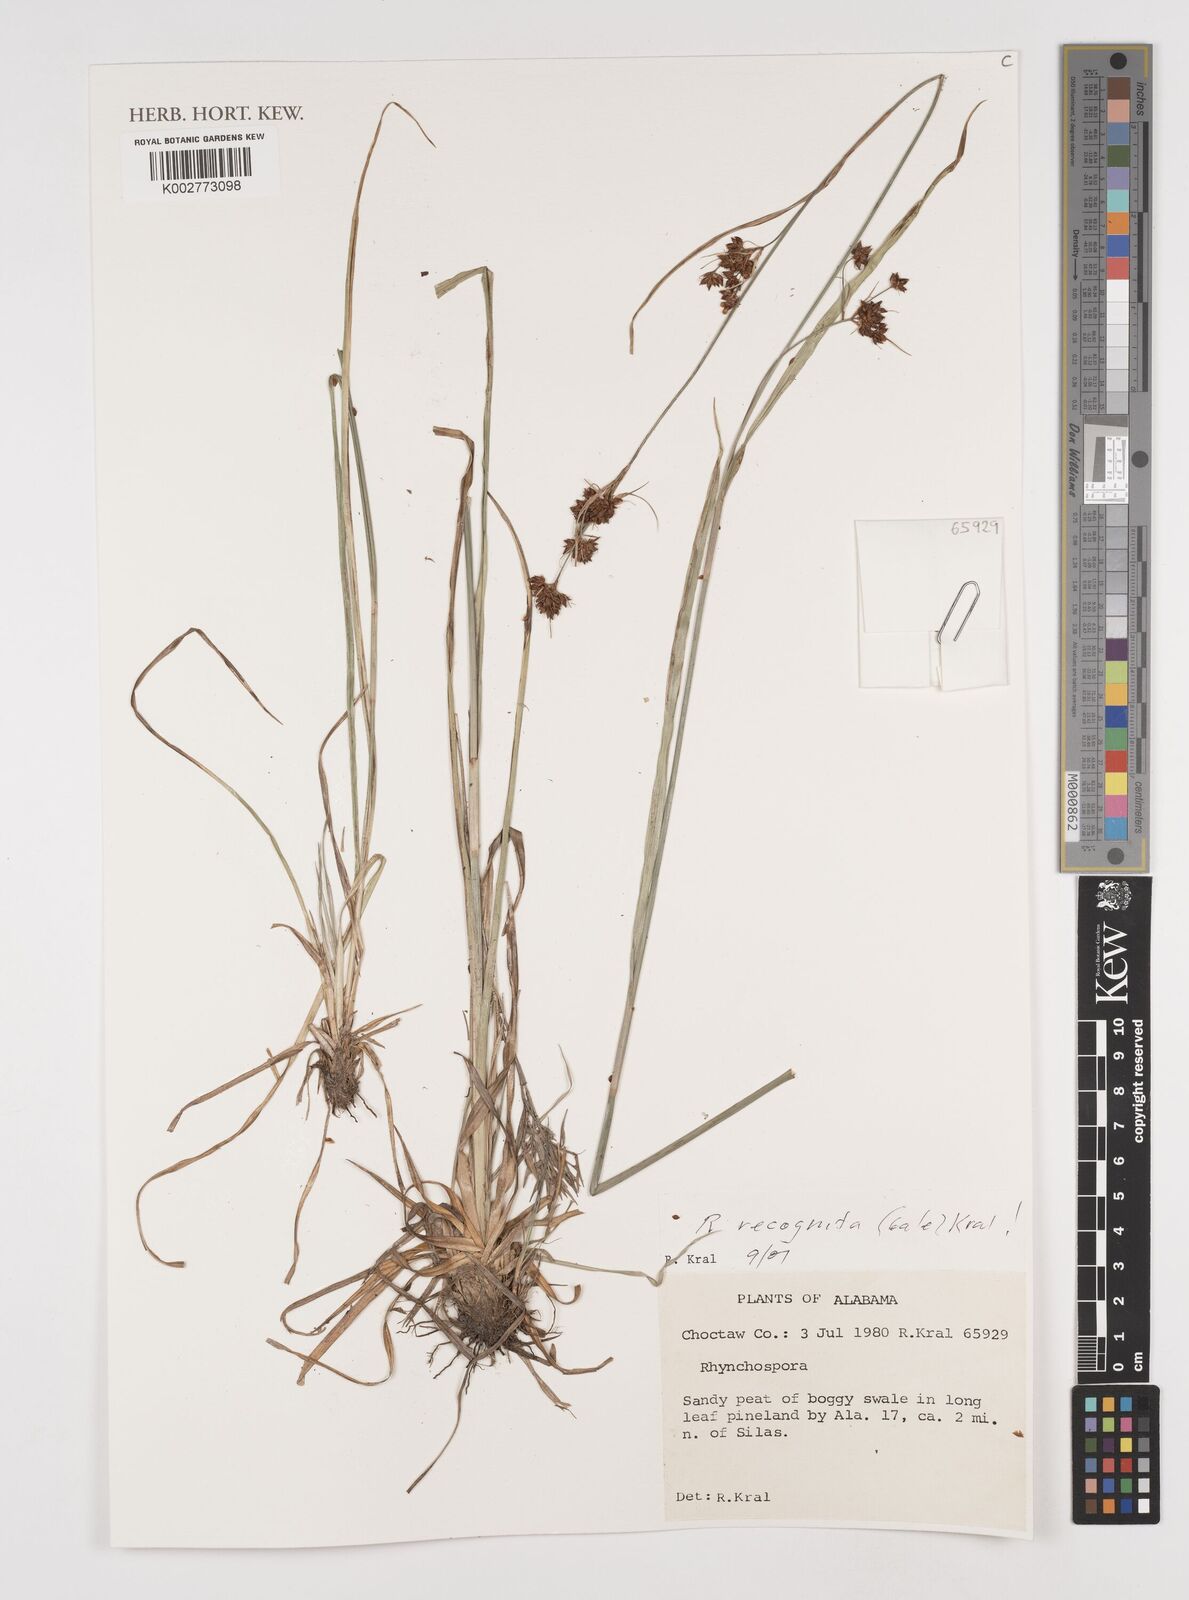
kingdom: Plantae
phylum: Tracheophyta
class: Liliopsida
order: Poales
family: Cyperaceae
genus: Rhynchospora
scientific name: Rhynchospora recognita
